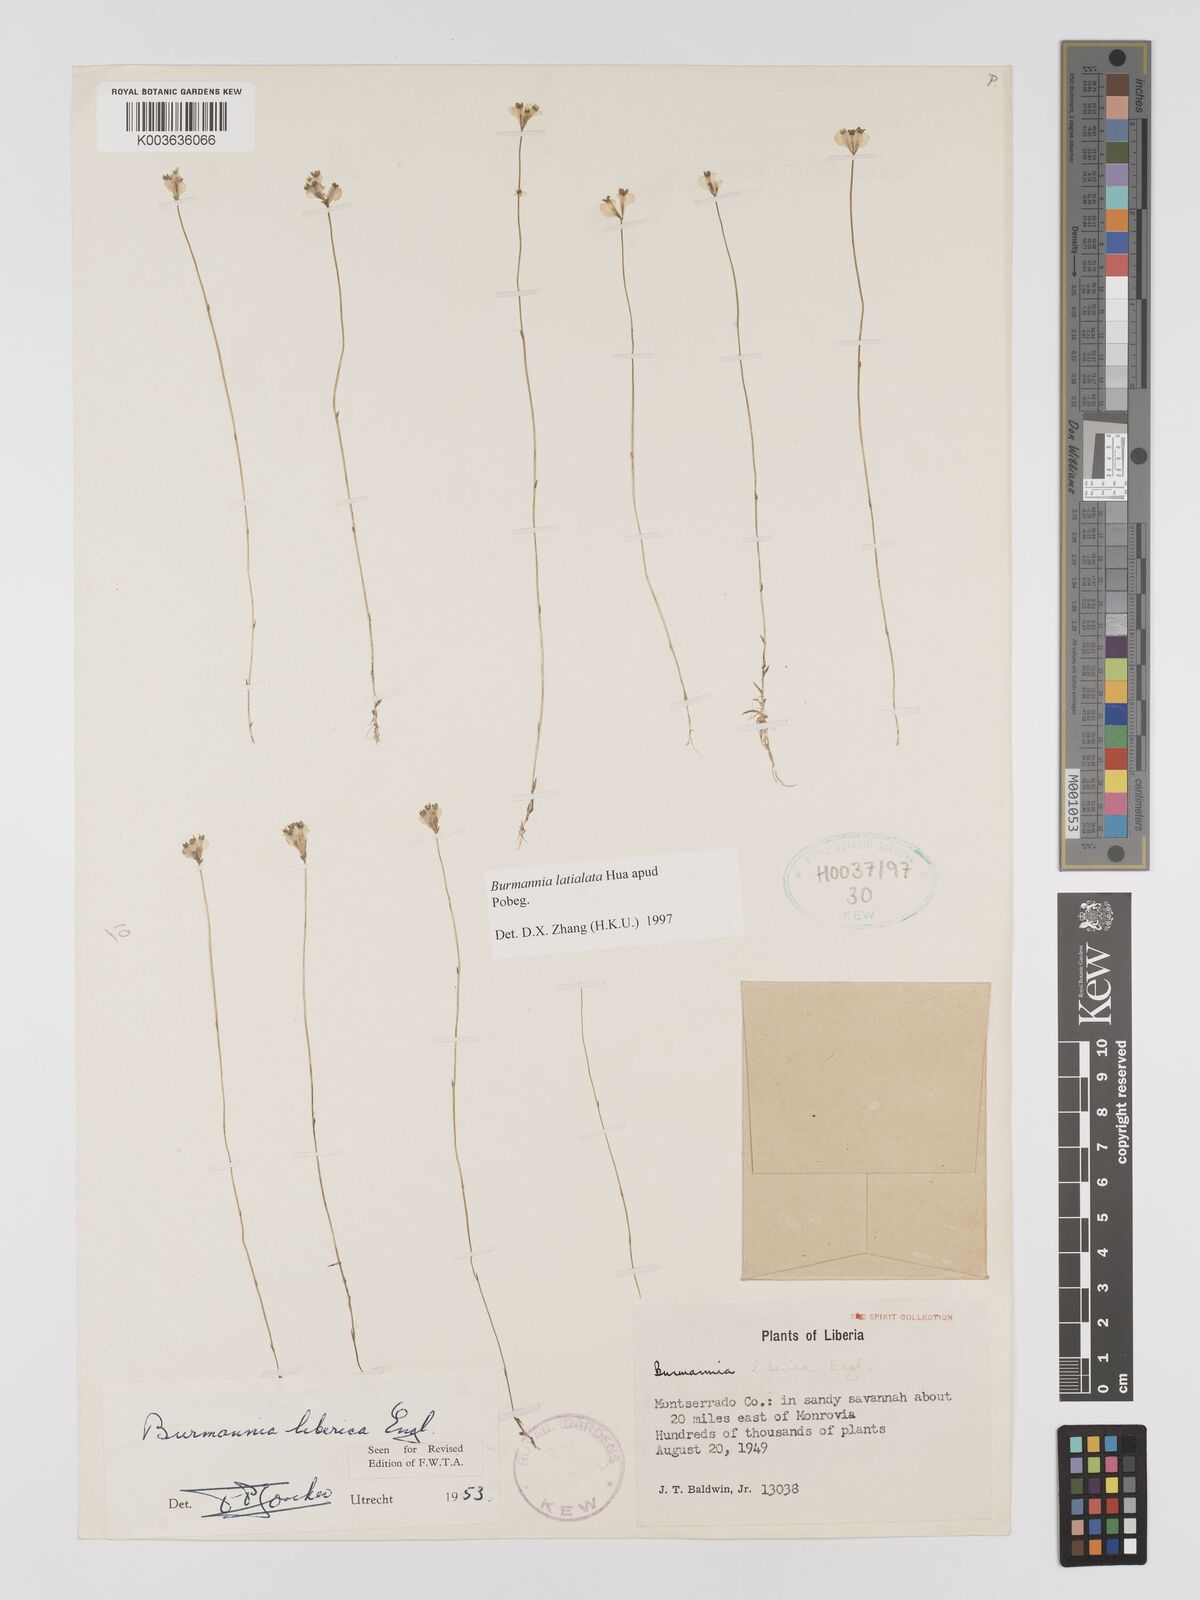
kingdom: Plantae
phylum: Tracheophyta
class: Liliopsida
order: Dioscoreales
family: Burmanniaceae
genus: Burmannia
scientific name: Burmannia madagascariensis
